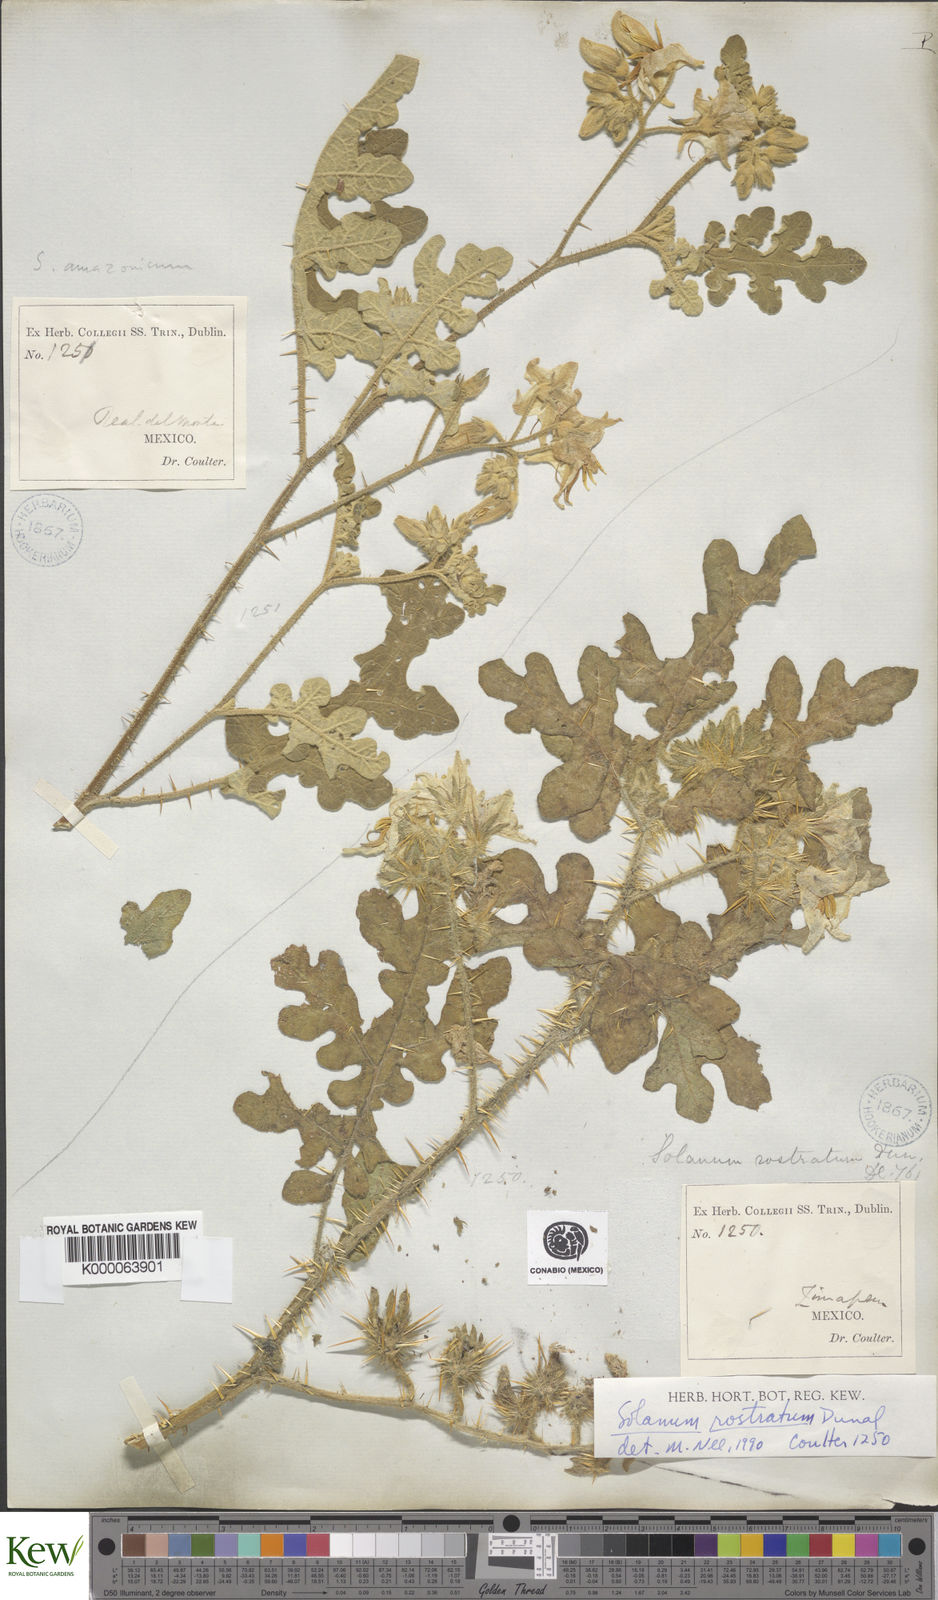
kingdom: Plantae
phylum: Tracheophyta
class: Magnoliopsida
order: Solanales
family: Solanaceae
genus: Solanum
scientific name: Solanum angustifolium
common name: Buffalobur nightshade
